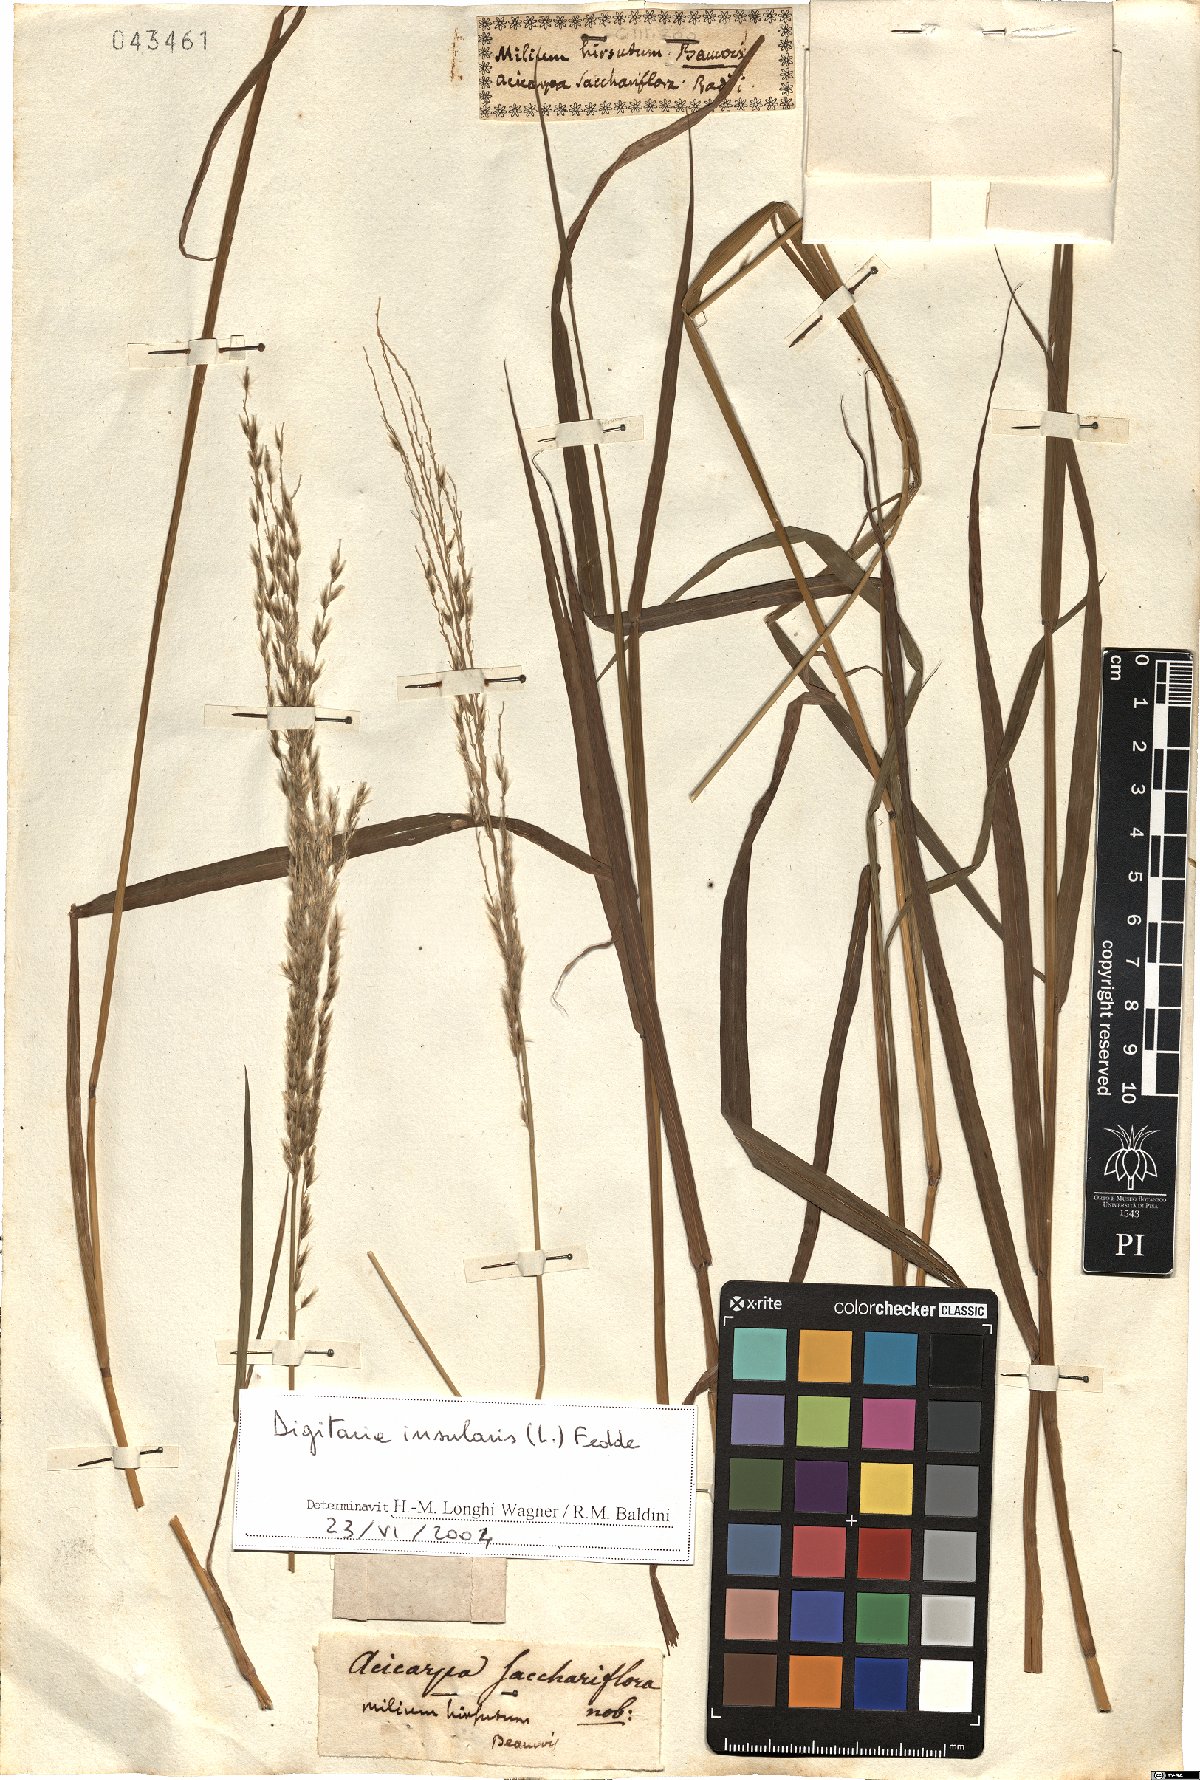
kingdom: Plantae
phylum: Tracheophyta
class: Liliopsida
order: Poales
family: Poaceae
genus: Digitaria
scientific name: Digitaria insularis
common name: Sourgrass
